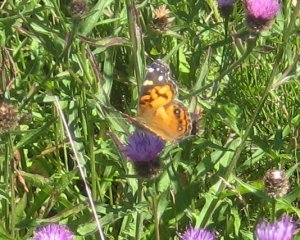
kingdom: Animalia
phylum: Arthropoda
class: Insecta
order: Lepidoptera
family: Nymphalidae
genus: Vanessa
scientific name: Vanessa virginiensis
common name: American Lady
